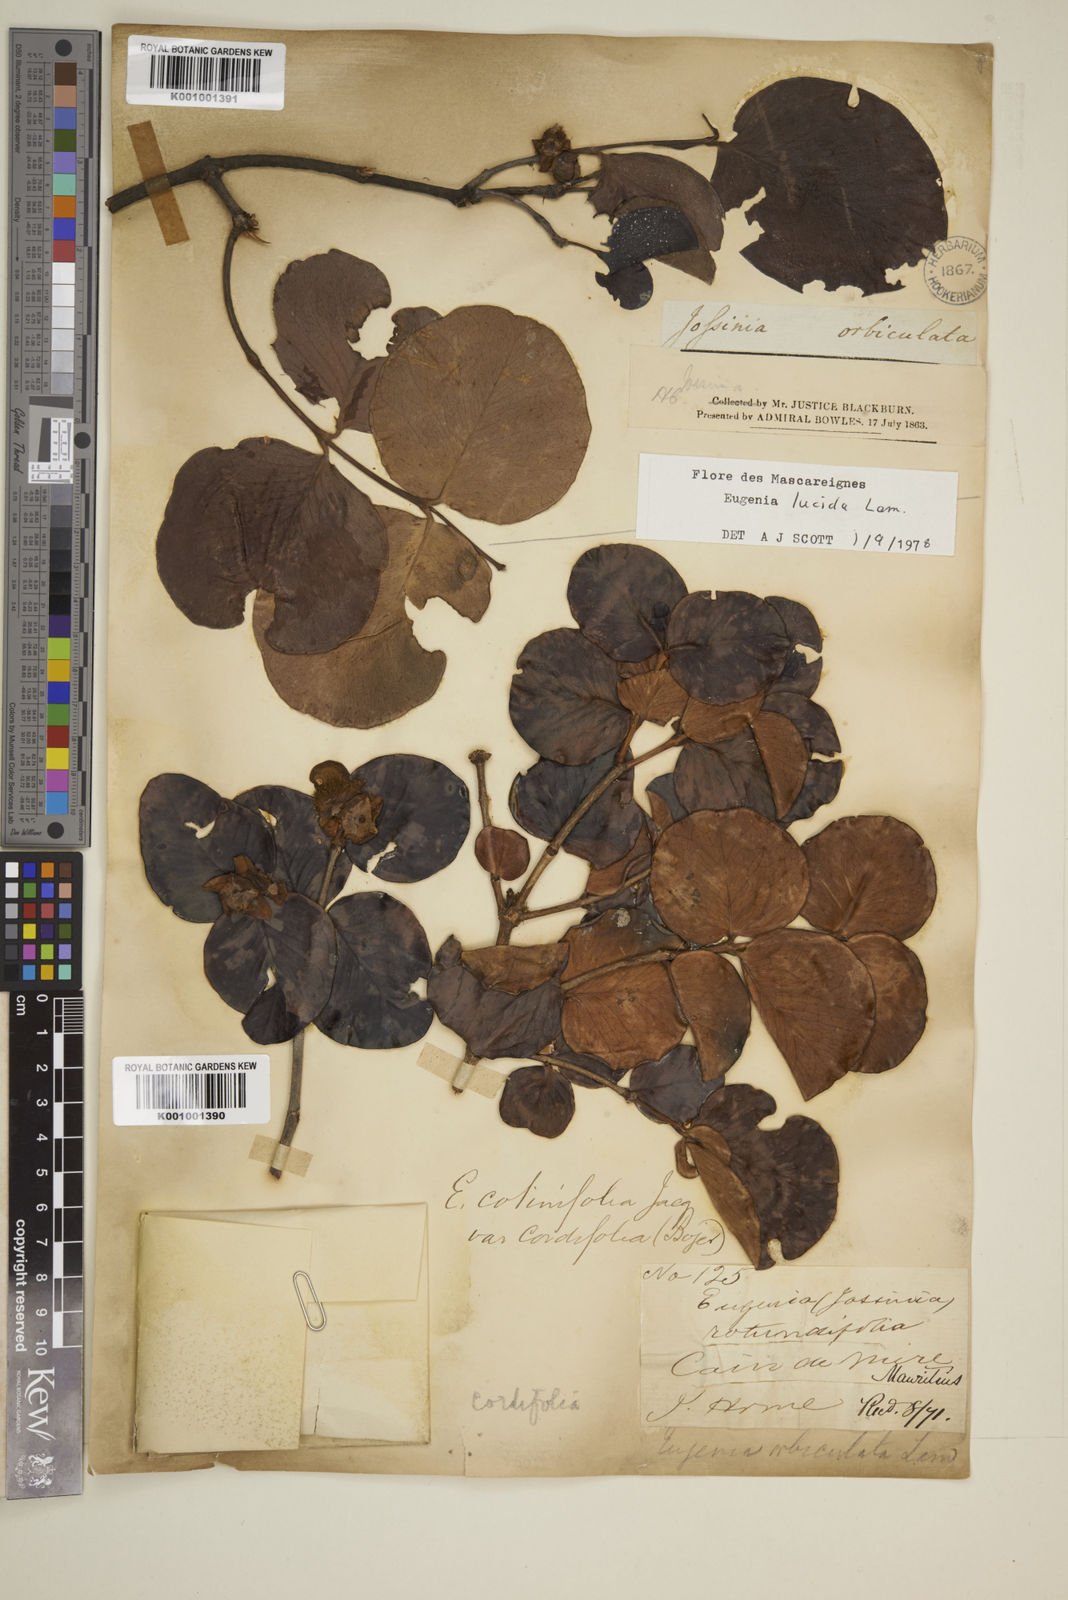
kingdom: Plantae
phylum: Tracheophyta
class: Magnoliopsida
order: Myrtales
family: Myrtaceae
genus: Eugenia
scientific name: Eugenia lucida
